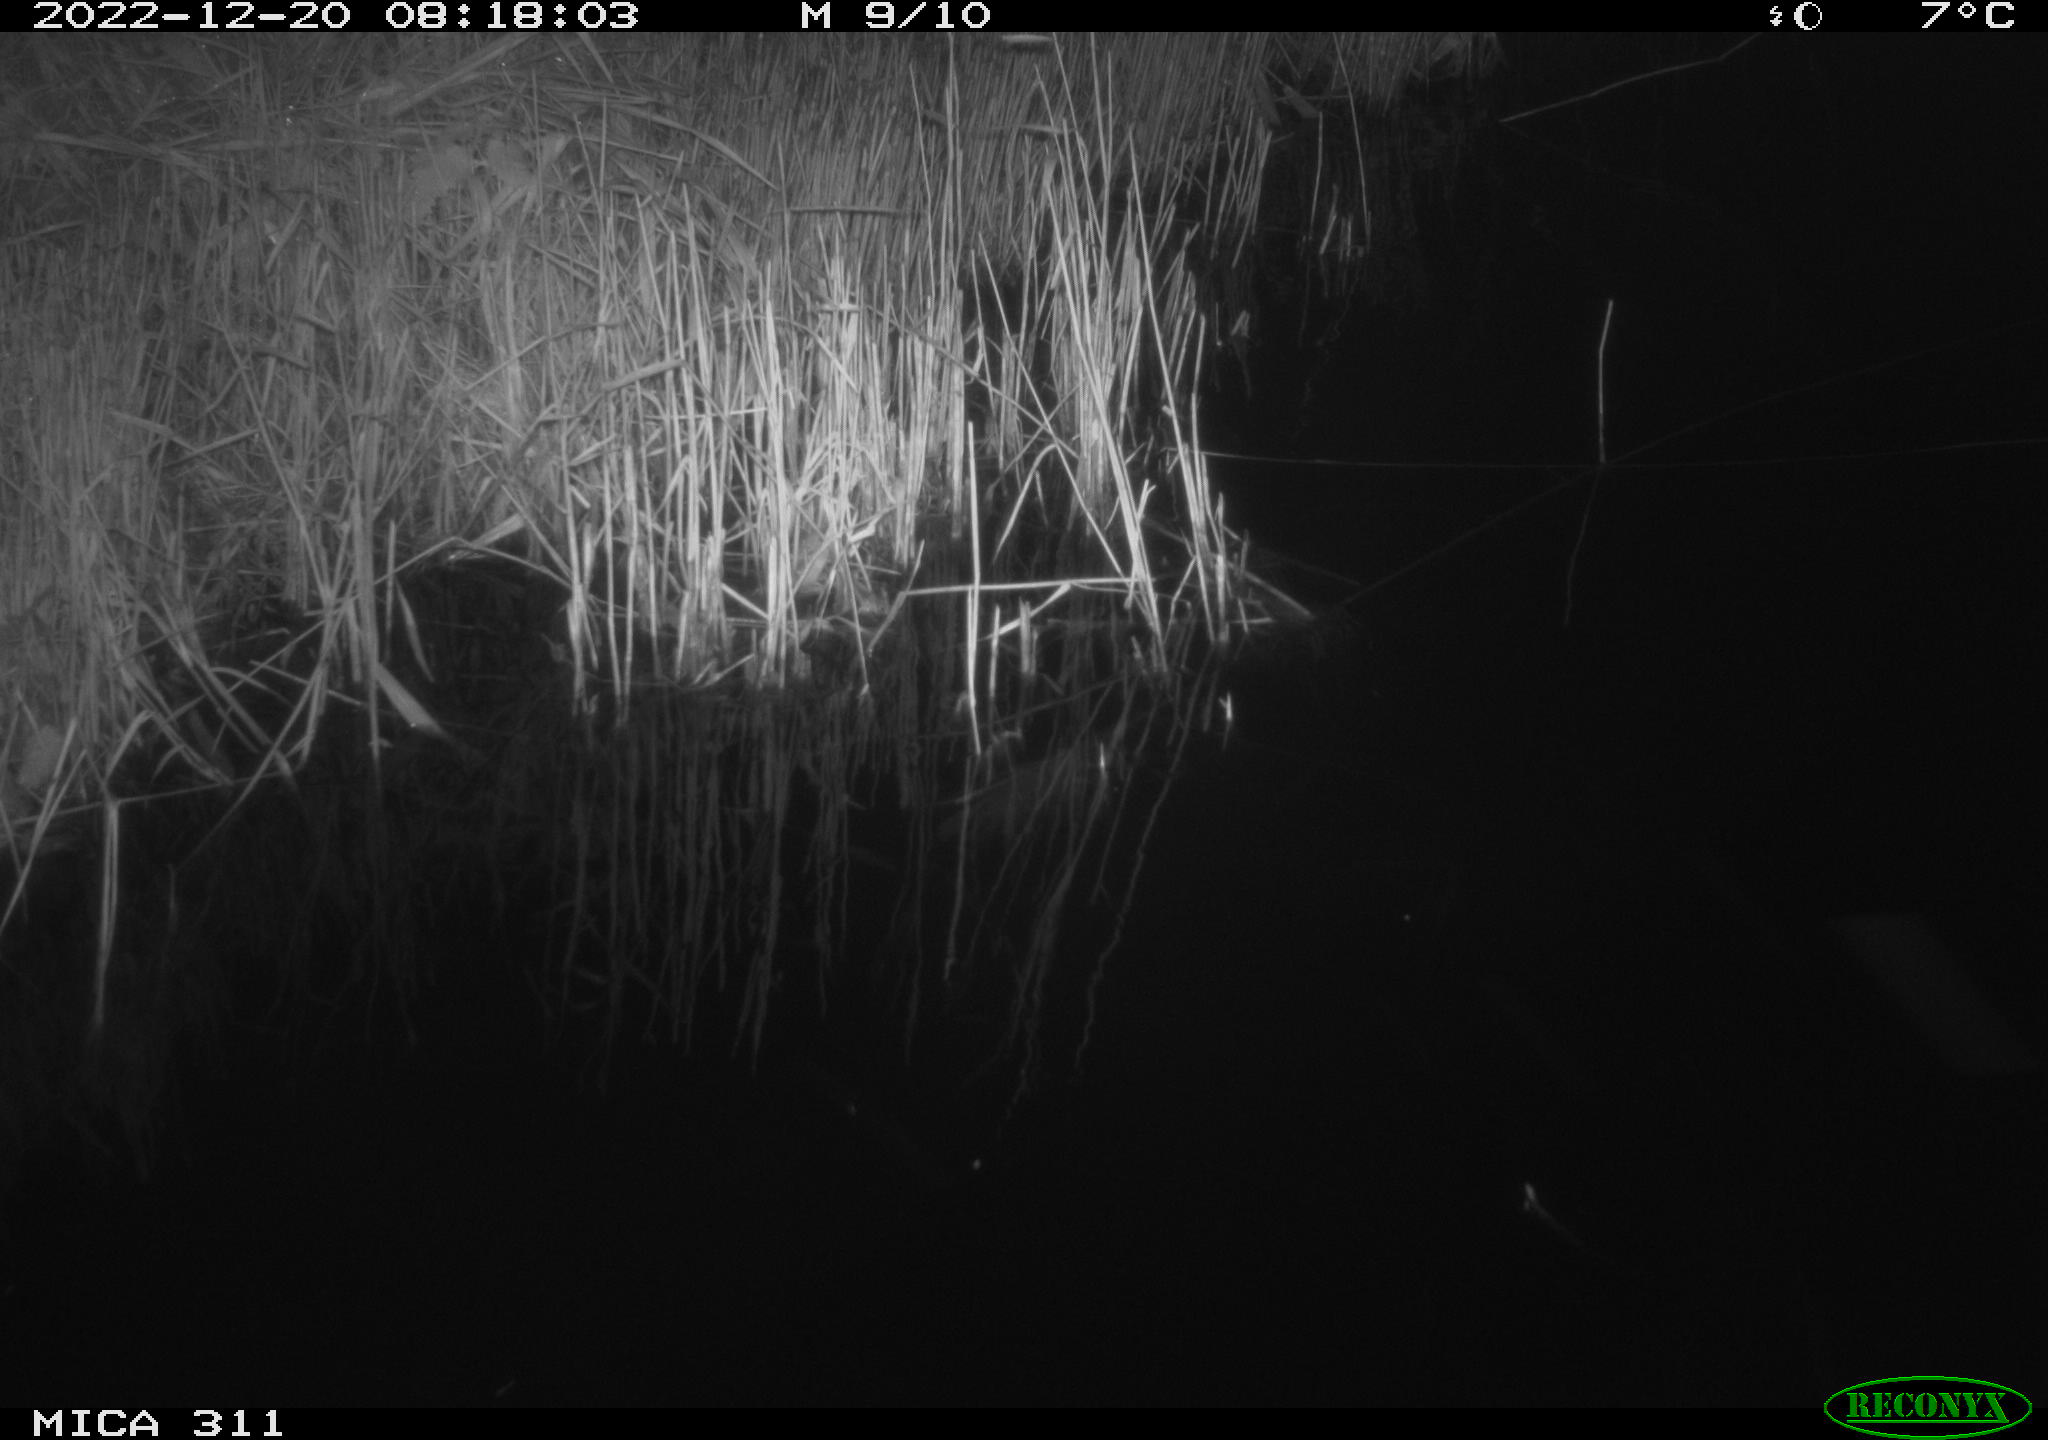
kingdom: Animalia
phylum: Chordata
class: Aves
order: Gruiformes
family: Rallidae
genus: Gallinula
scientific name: Gallinula chloropus
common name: Common moorhen
